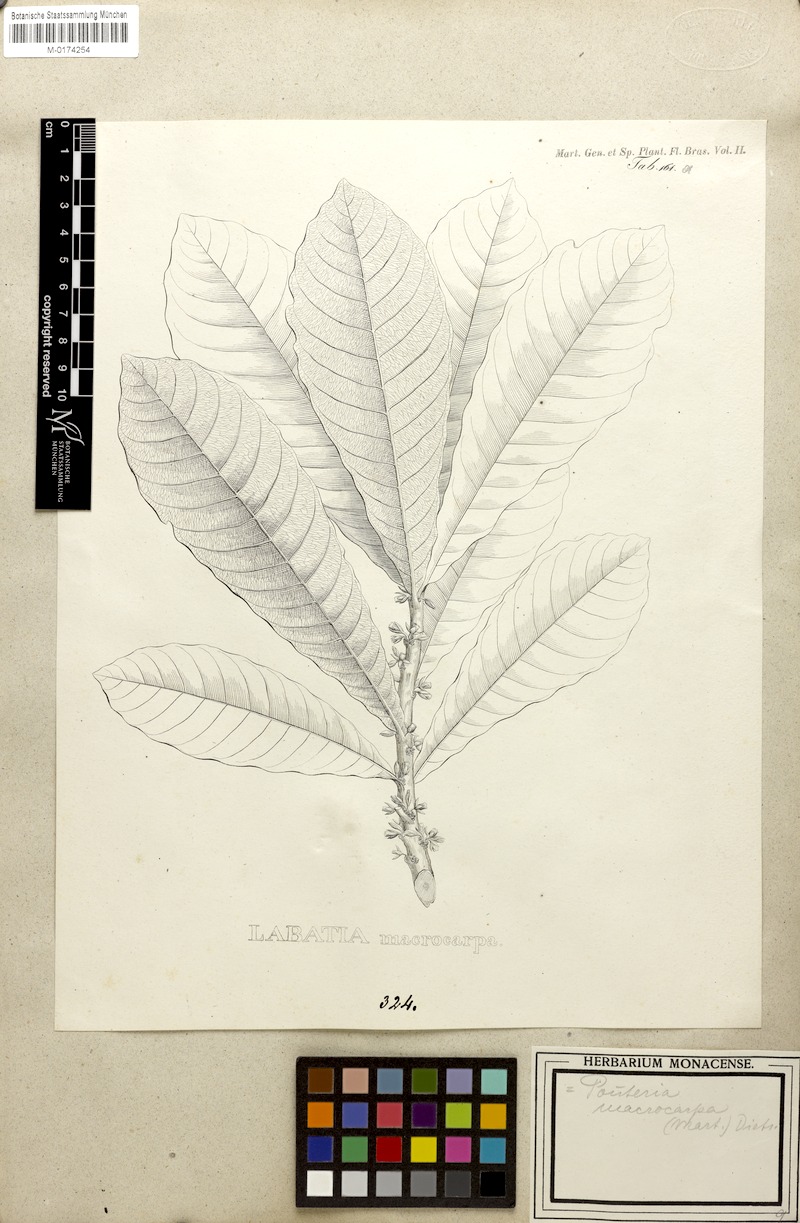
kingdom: Plantae
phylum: Tracheophyta
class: Magnoliopsida
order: Ericales
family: Sapotaceae
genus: Pouteria
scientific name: Pouteria macrocarpa
